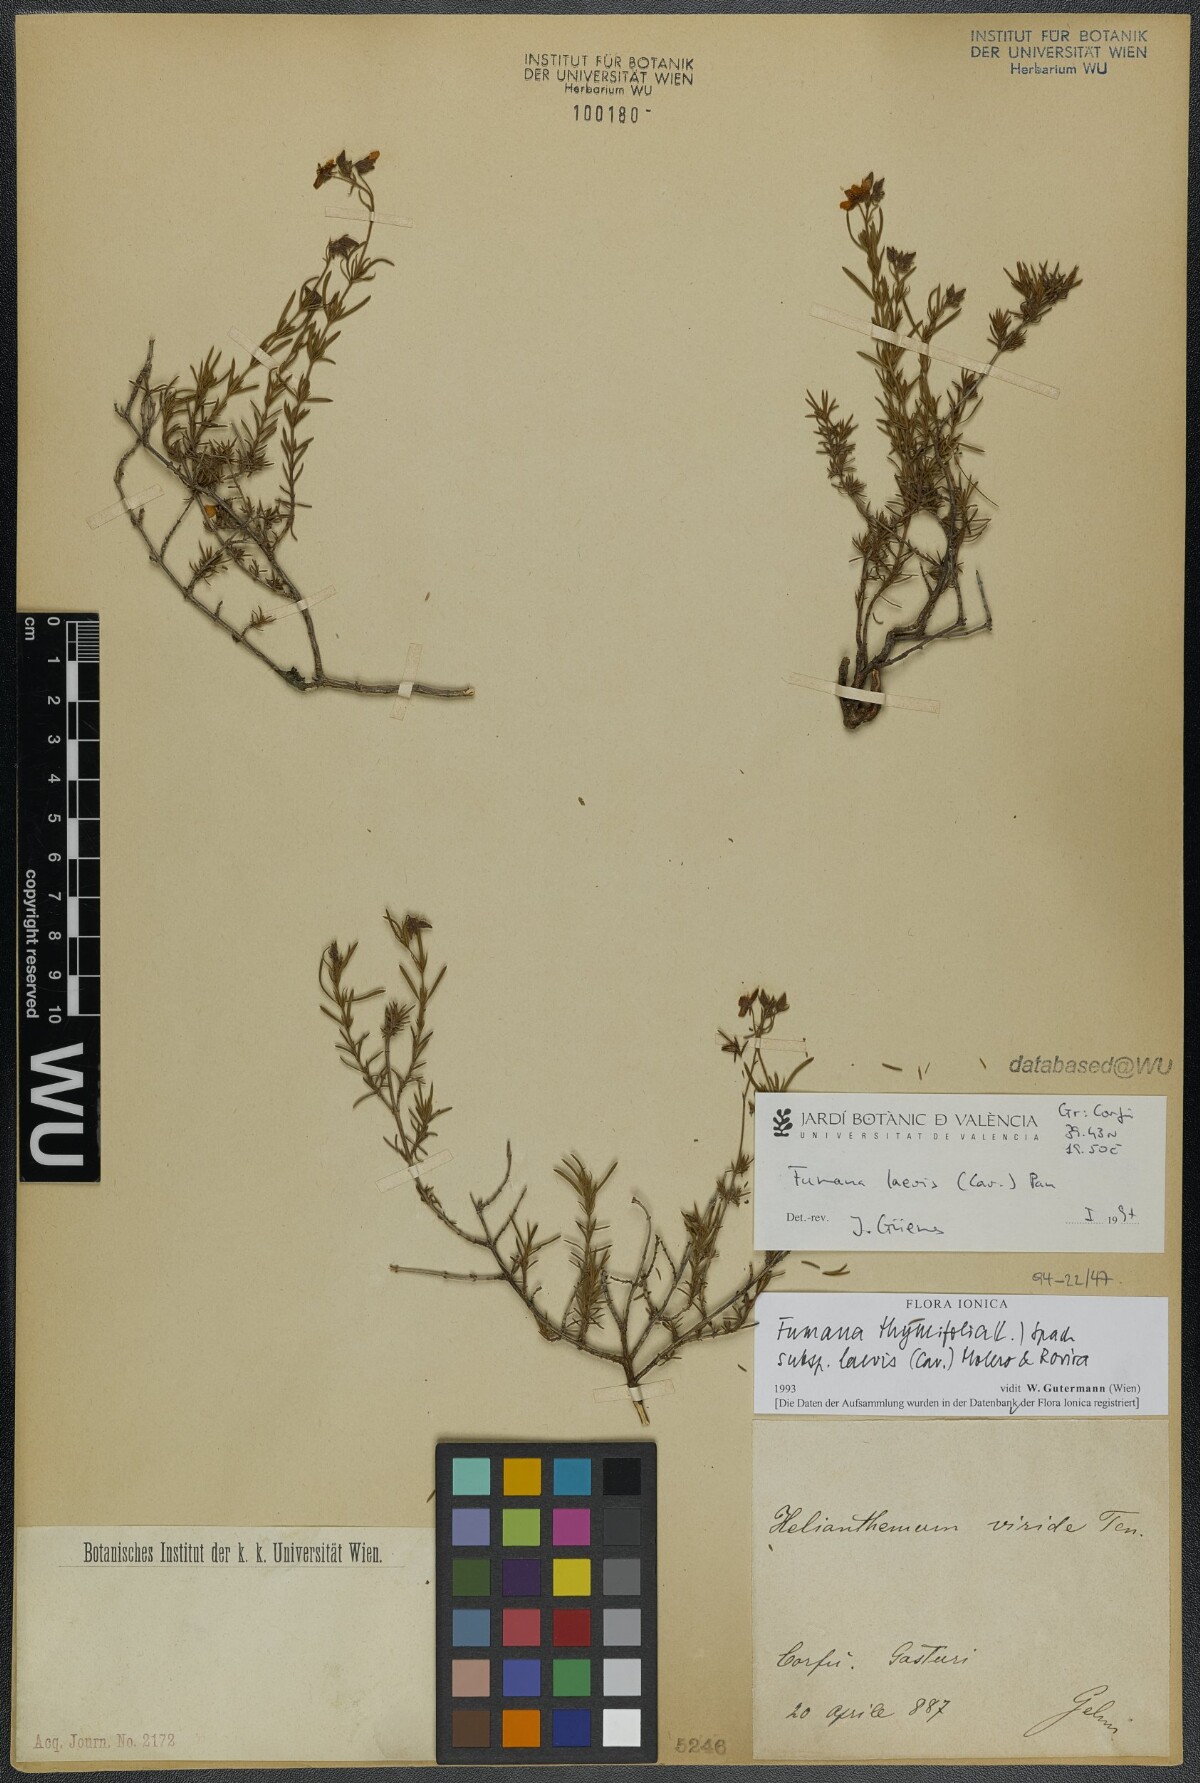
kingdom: Plantae
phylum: Tracheophyta
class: Magnoliopsida
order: Malvales
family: Cistaceae
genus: Fumana
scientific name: Fumana laevis
